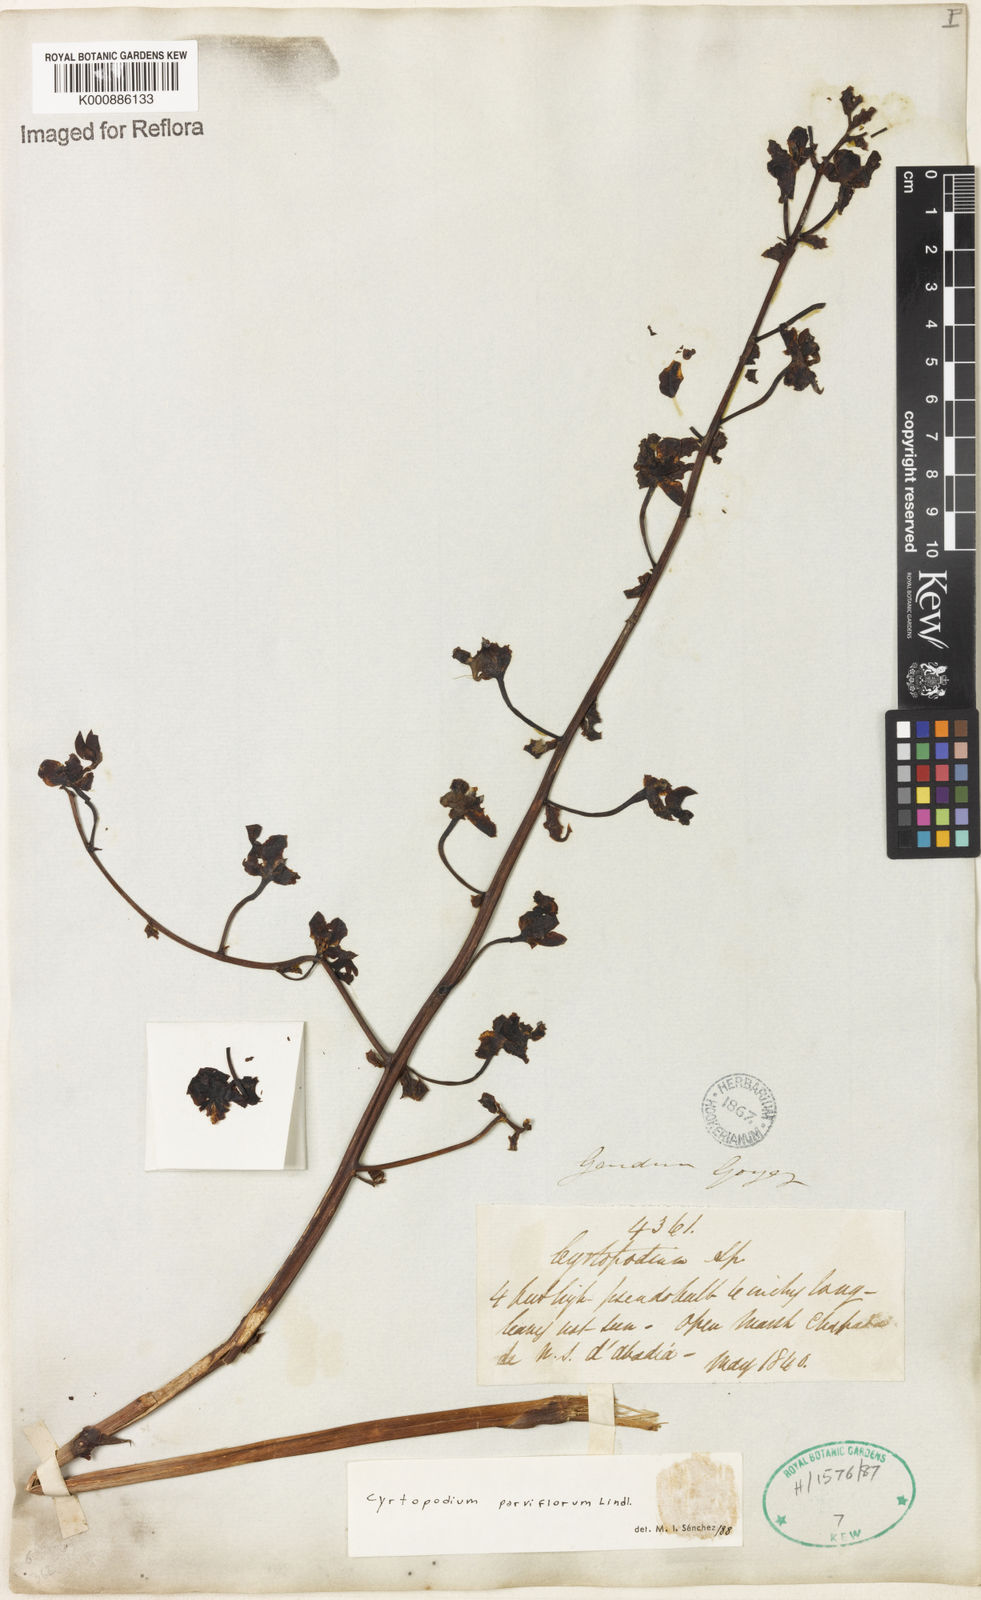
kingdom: Plantae
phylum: Tracheophyta
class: Liliopsida
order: Asparagales
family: Orchidaceae
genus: Cyrtopodium
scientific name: Cyrtopodium parviflorum
